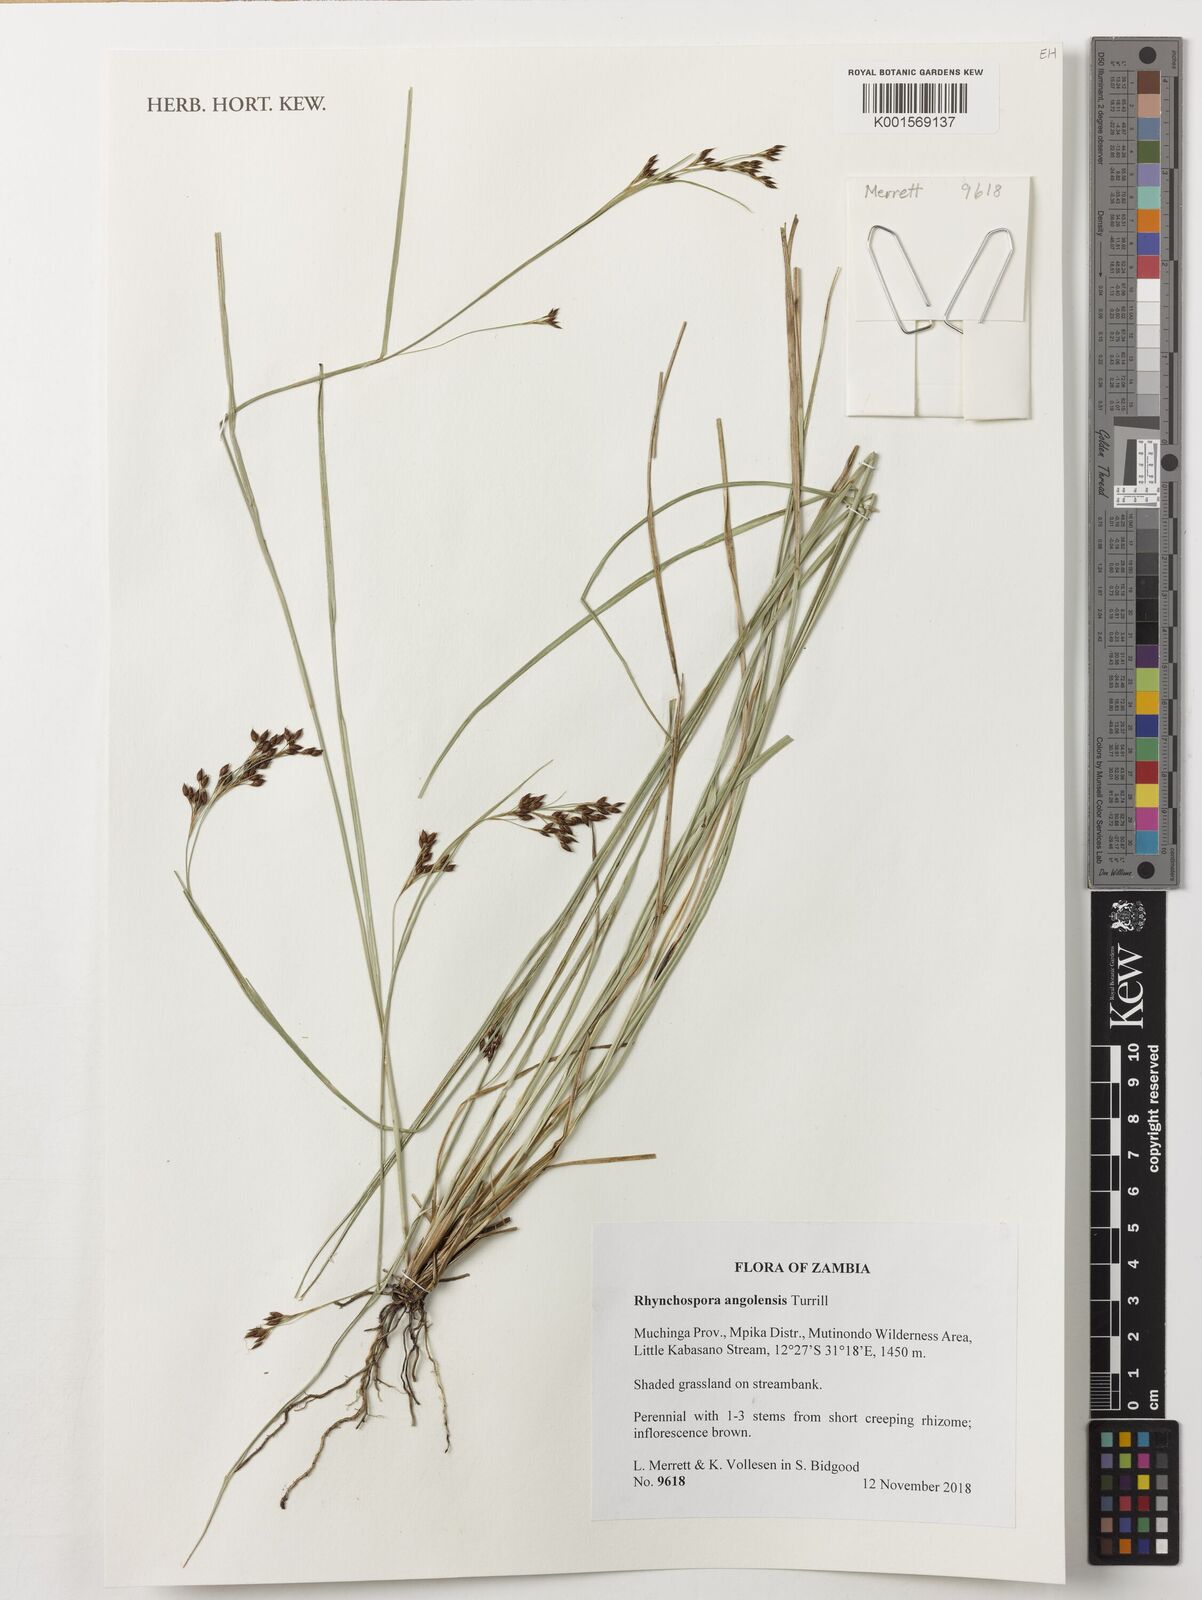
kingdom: Plantae
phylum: Tracheophyta
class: Liliopsida
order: Poales
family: Cyperaceae
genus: Rhynchospora
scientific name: Rhynchospora angolensis
